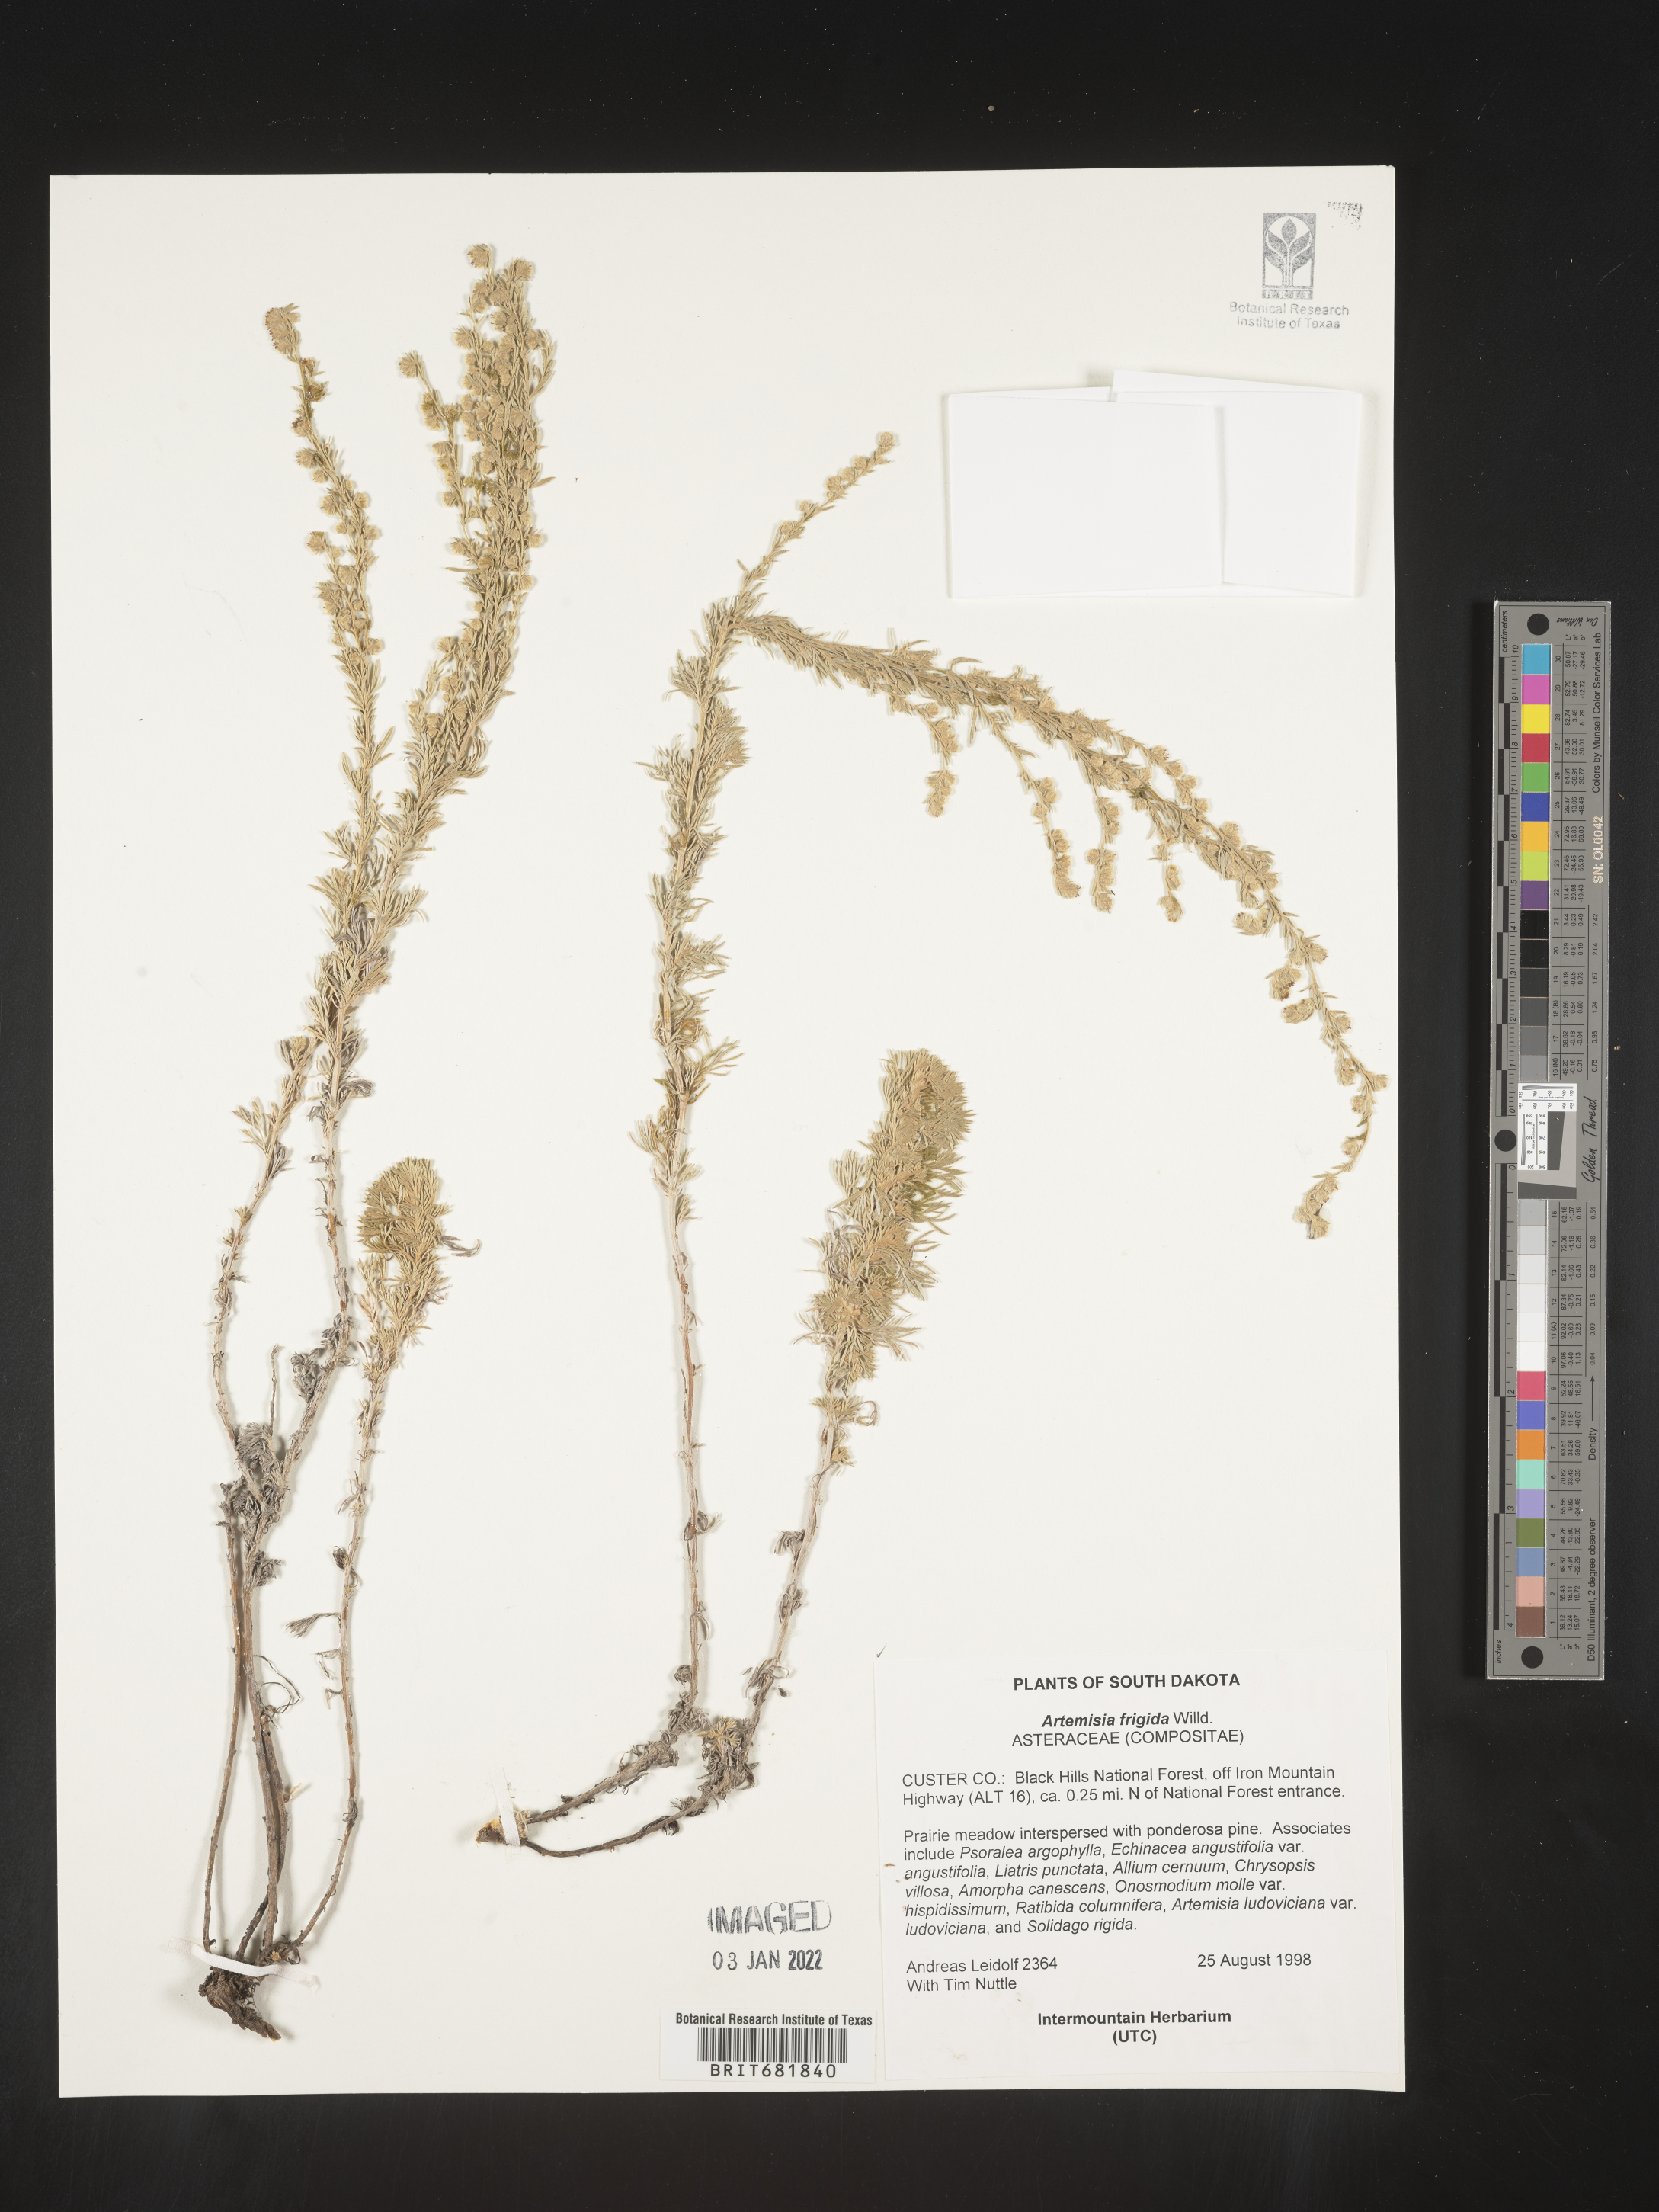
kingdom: Plantae
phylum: Tracheophyta
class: Magnoliopsida
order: Asterales
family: Asteraceae
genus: Artemisia
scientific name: Artemisia frigida
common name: Prairie sagewort
